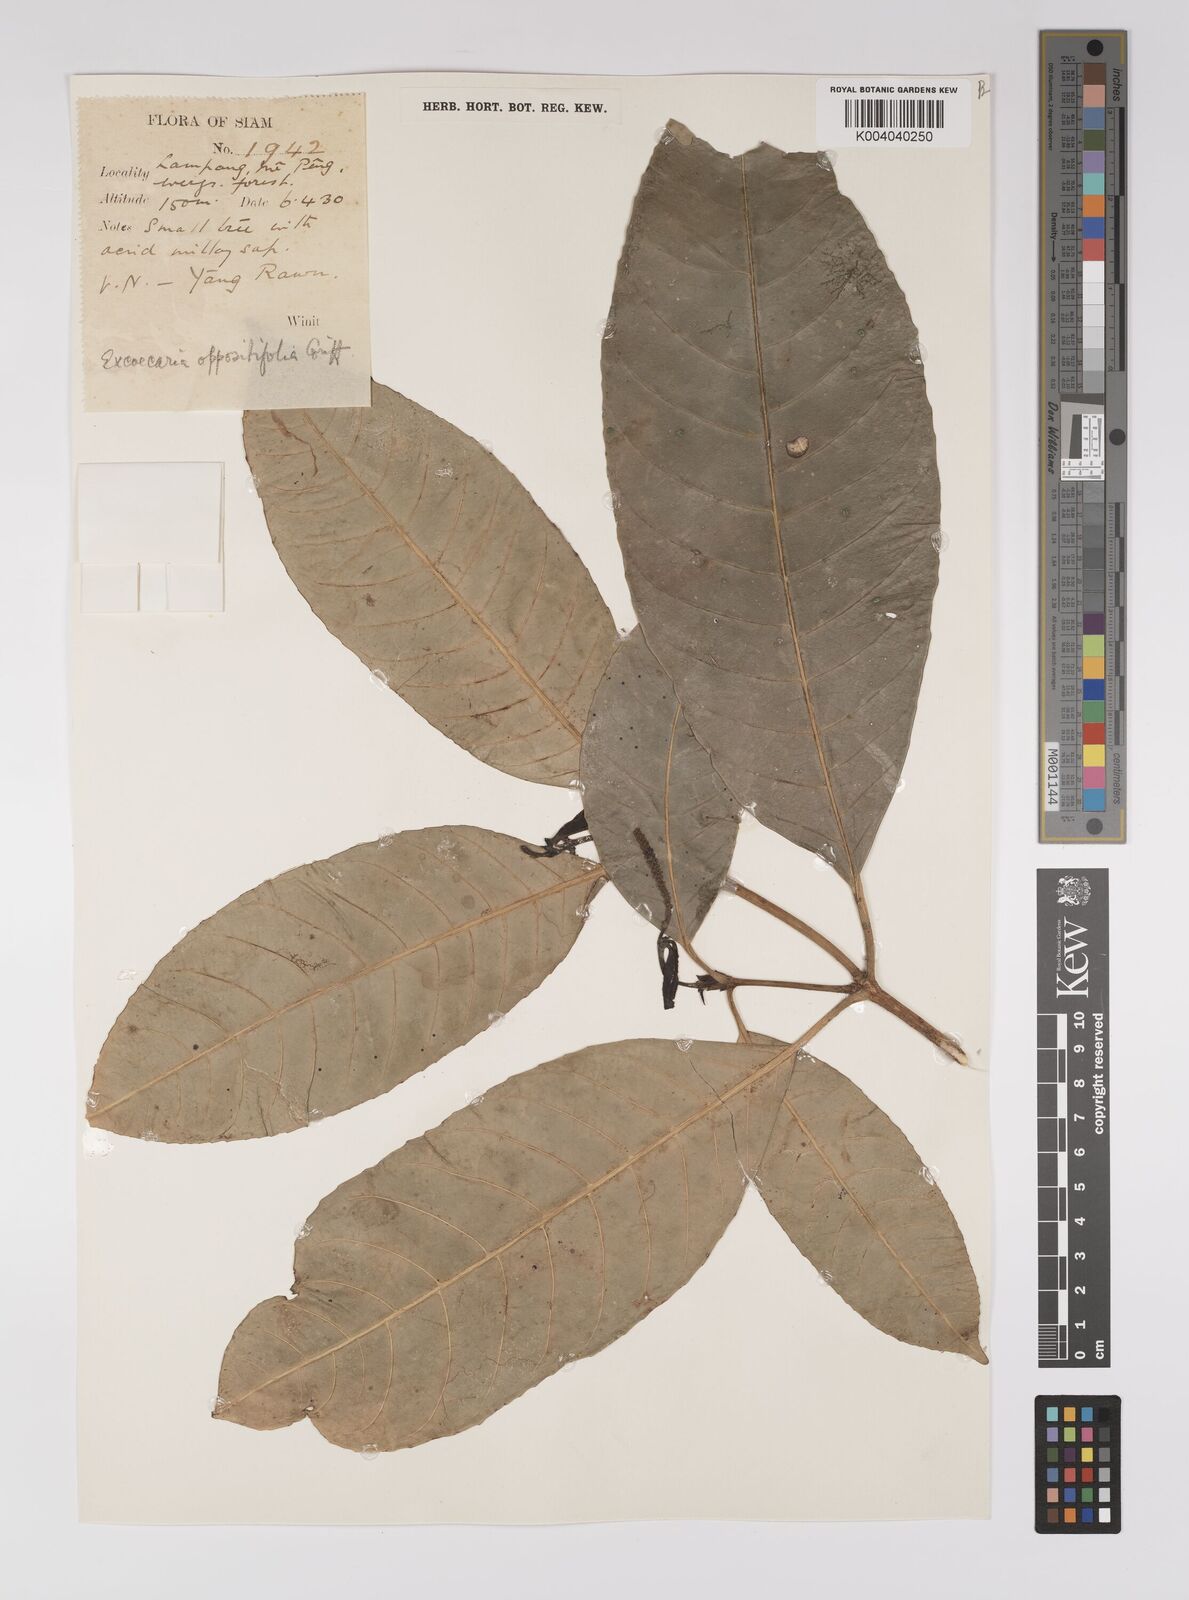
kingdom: Plantae
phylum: Tracheophyta
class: Magnoliopsida
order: Malpighiales
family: Euphorbiaceae
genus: Excoecaria
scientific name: Excoecaria oppositifolia
